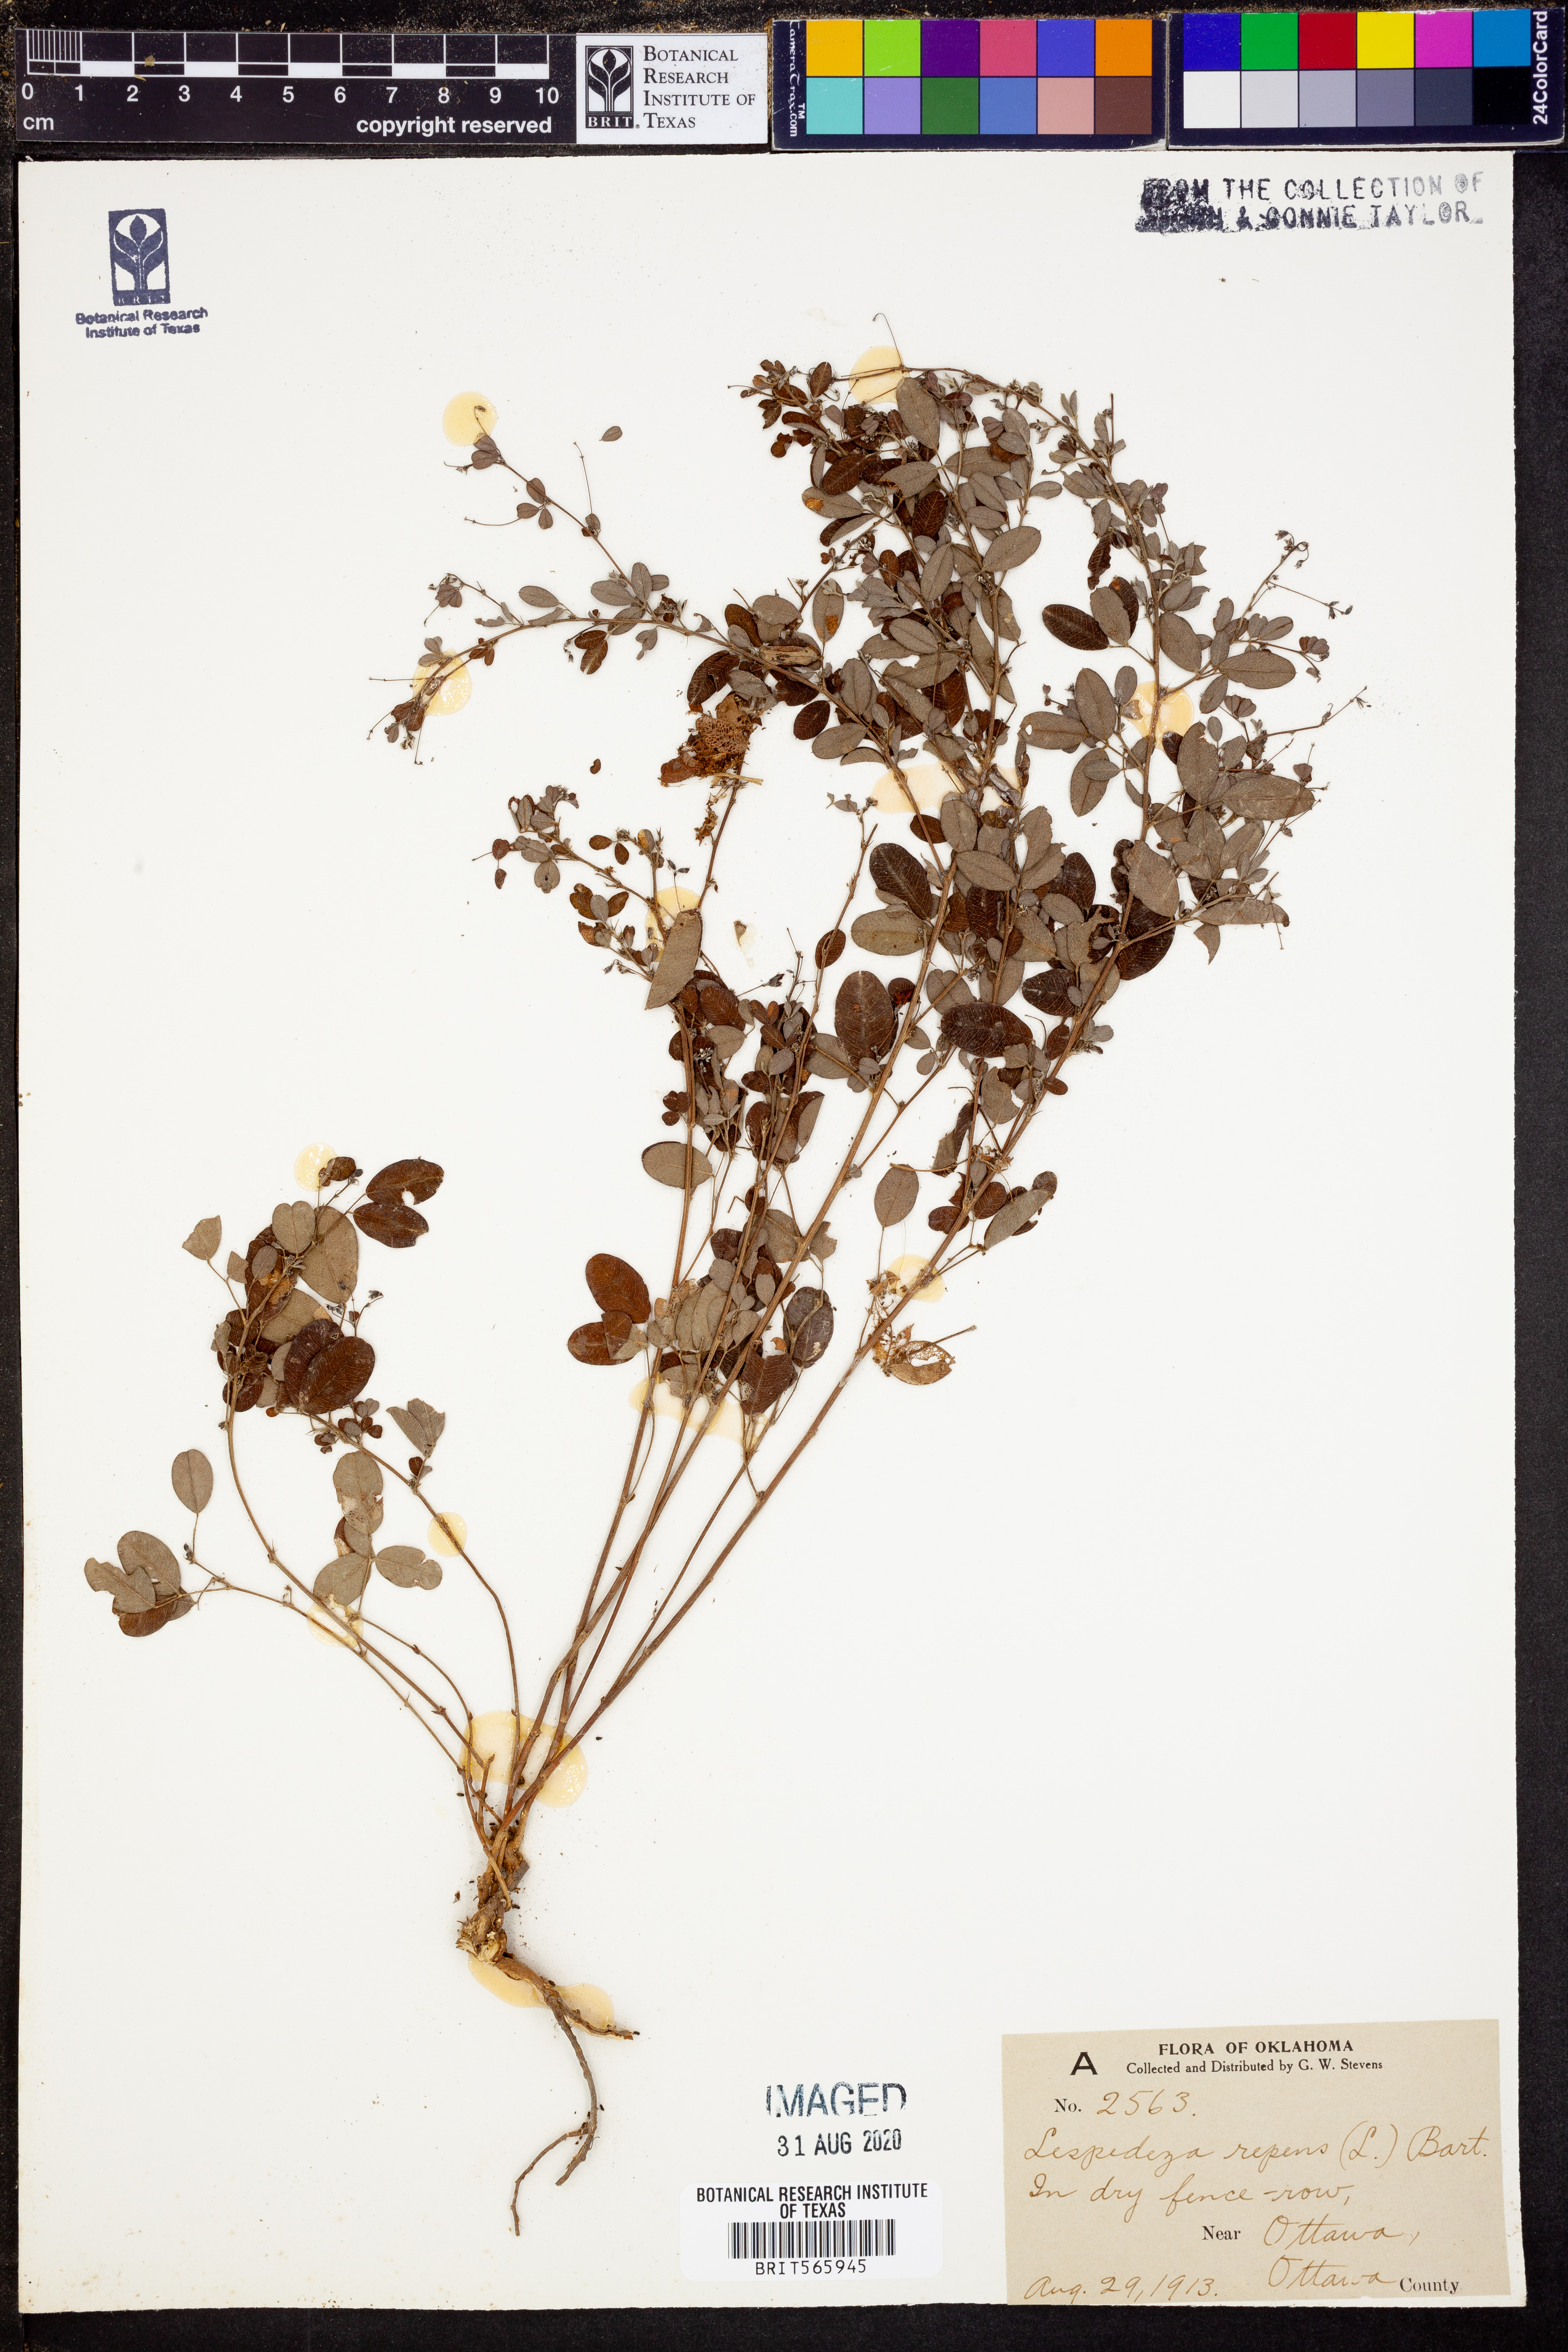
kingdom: Plantae
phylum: Tracheophyta
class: Magnoliopsida
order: Fabales
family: Fabaceae
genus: Lespedeza
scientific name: Lespedeza repens
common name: Creeping bush-clover
